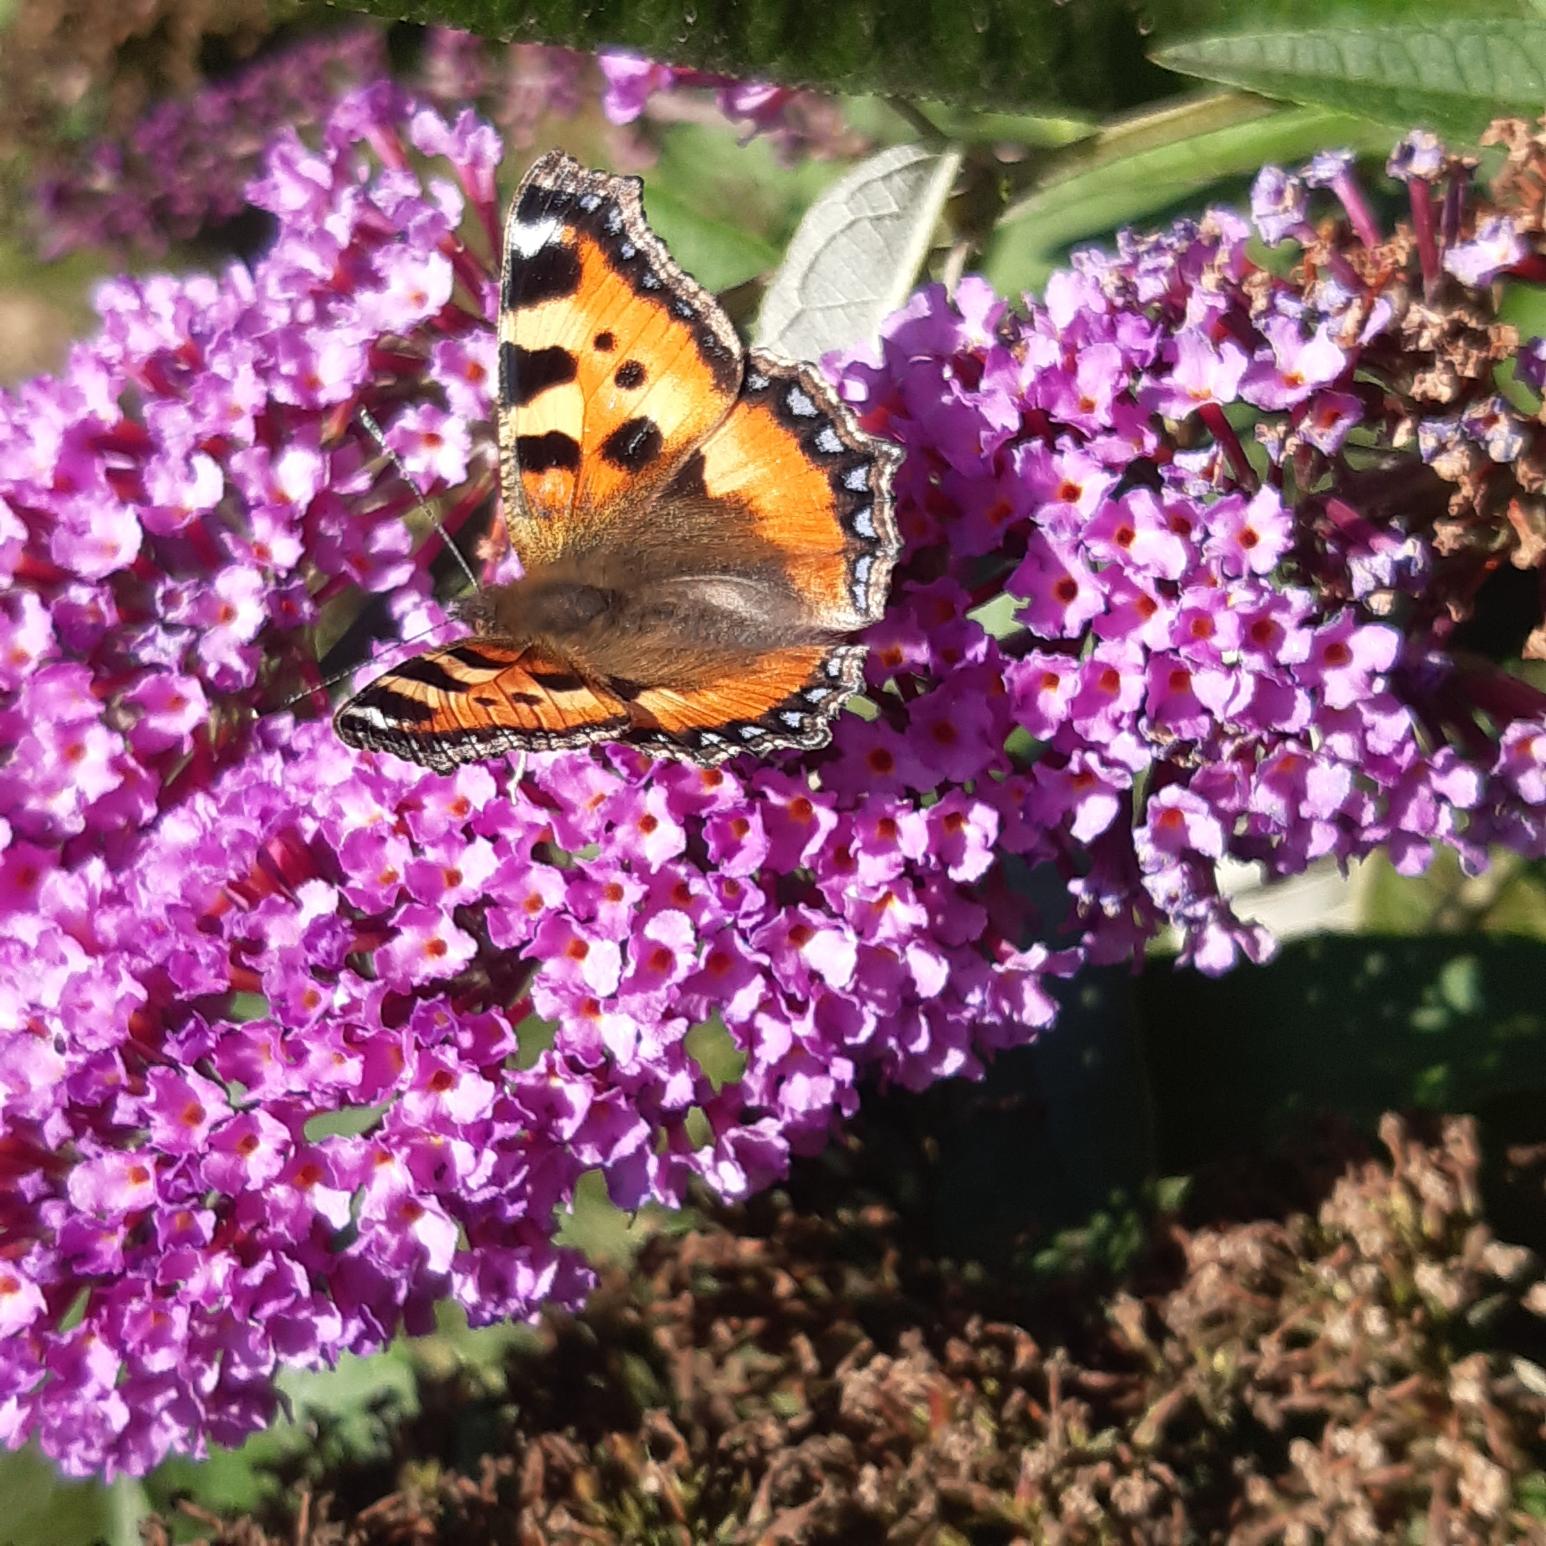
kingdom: Animalia
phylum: Arthropoda
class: Insecta
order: Lepidoptera
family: Nymphalidae
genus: Aglais
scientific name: Aglais urticae
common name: Nældens takvinge
